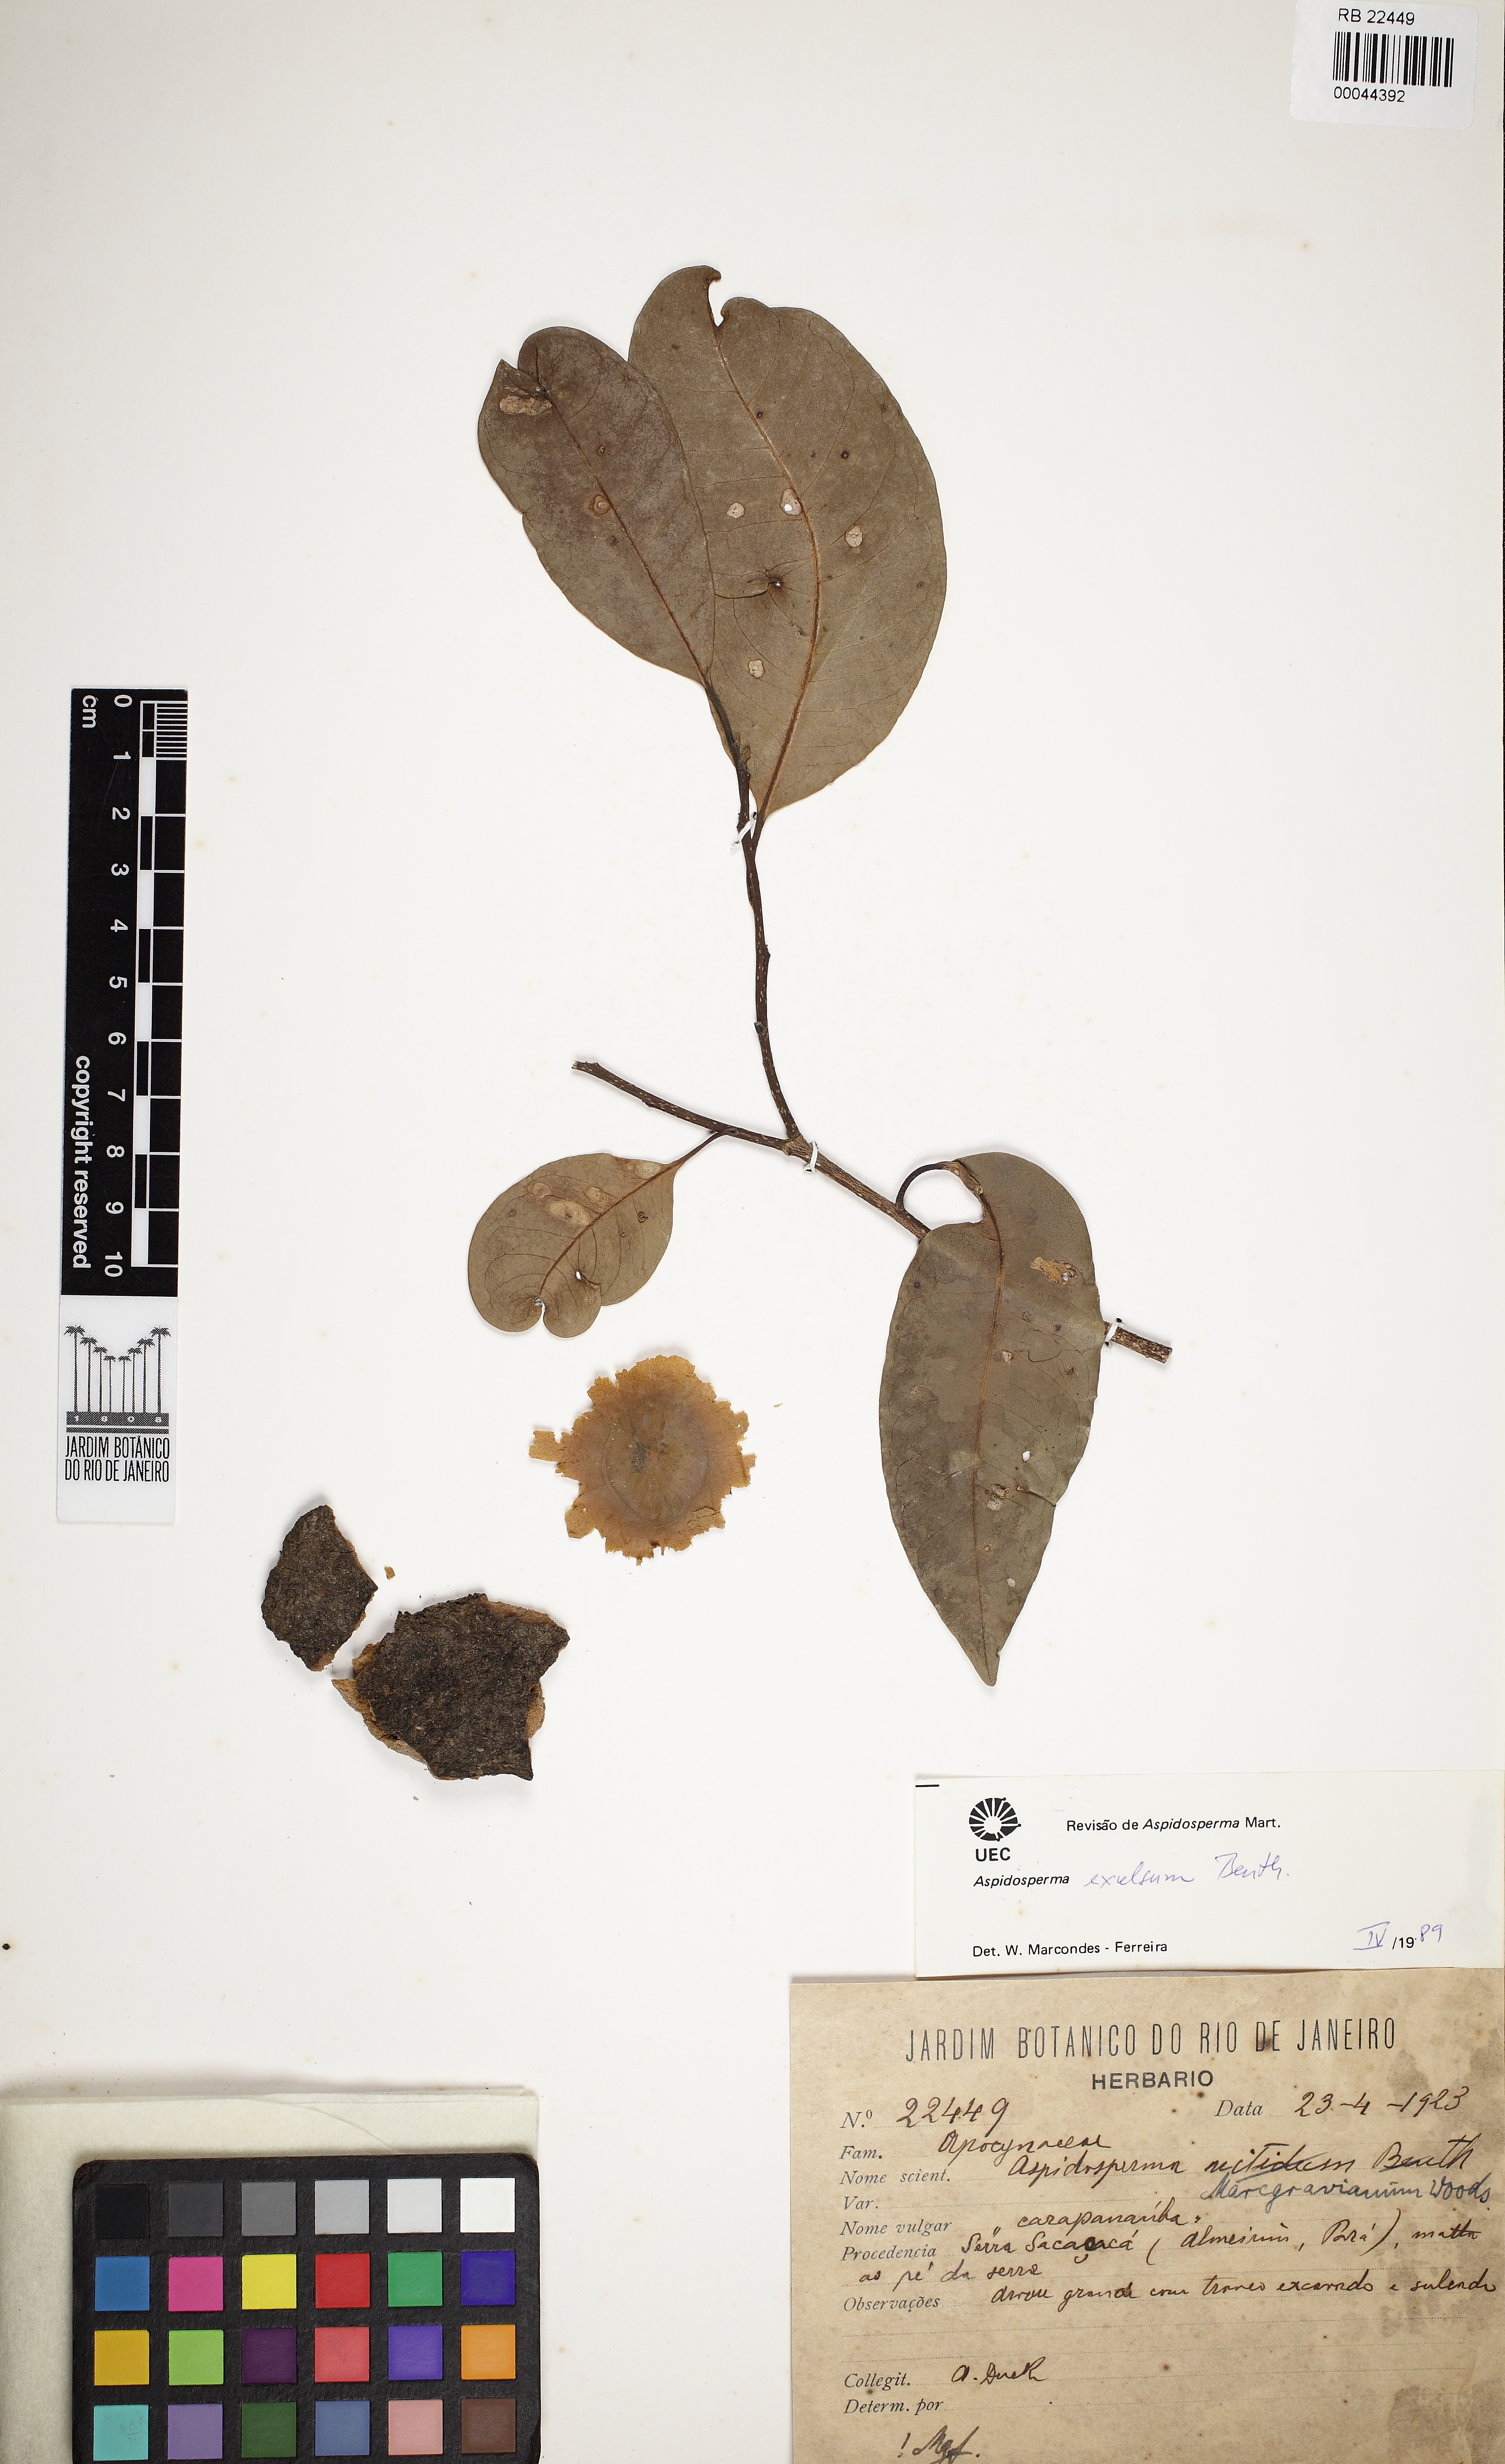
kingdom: Plantae
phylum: Tracheophyta
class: Magnoliopsida
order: Gentianales
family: Apocynaceae
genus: Aspidosperma
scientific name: Aspidosperma excelsum
